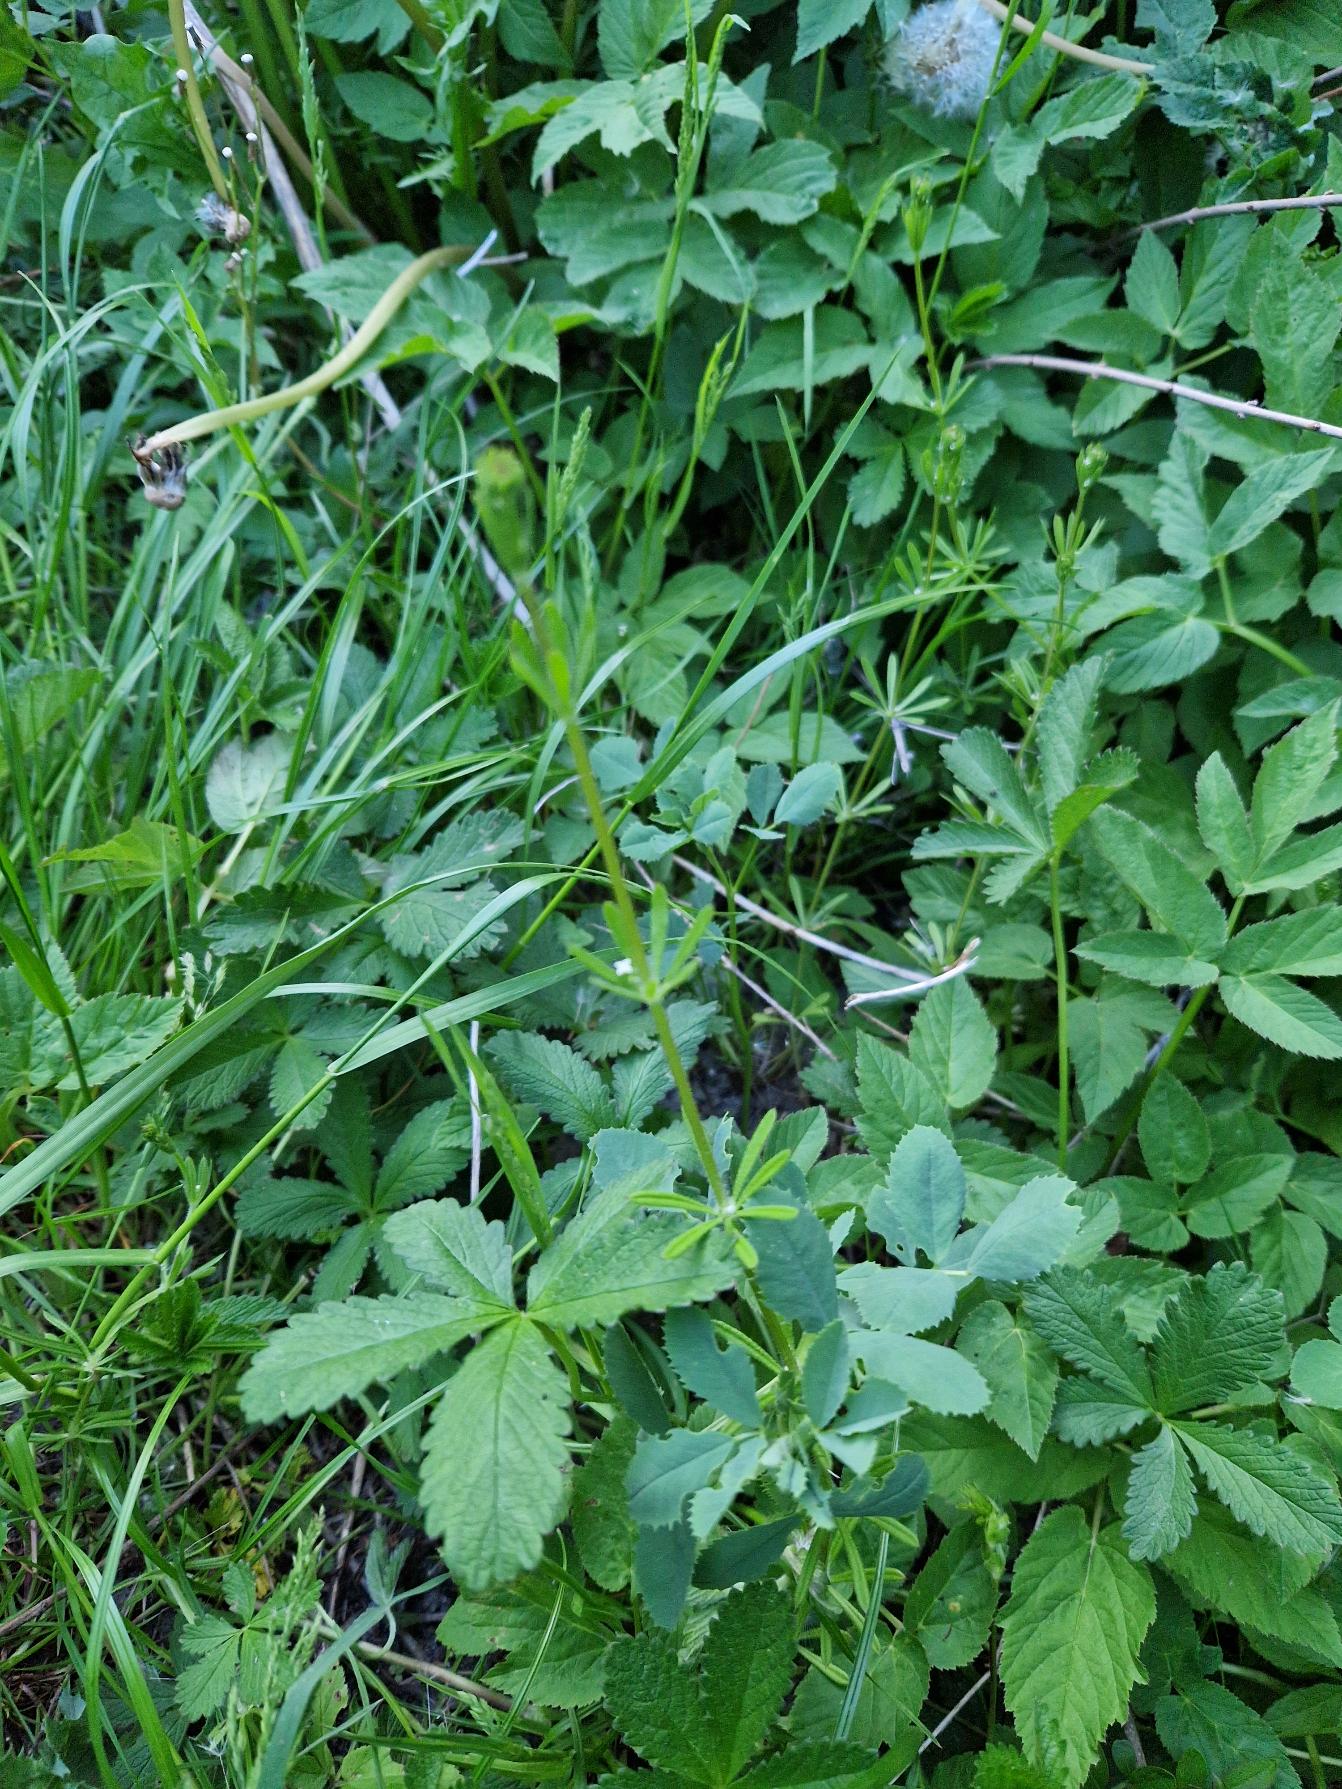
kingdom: Plantae
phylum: Tracheophyta
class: Magnoliopsida
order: Gentianales
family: Rubiaceae
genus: Galium
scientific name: Galium aparine
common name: Burre-snerre
